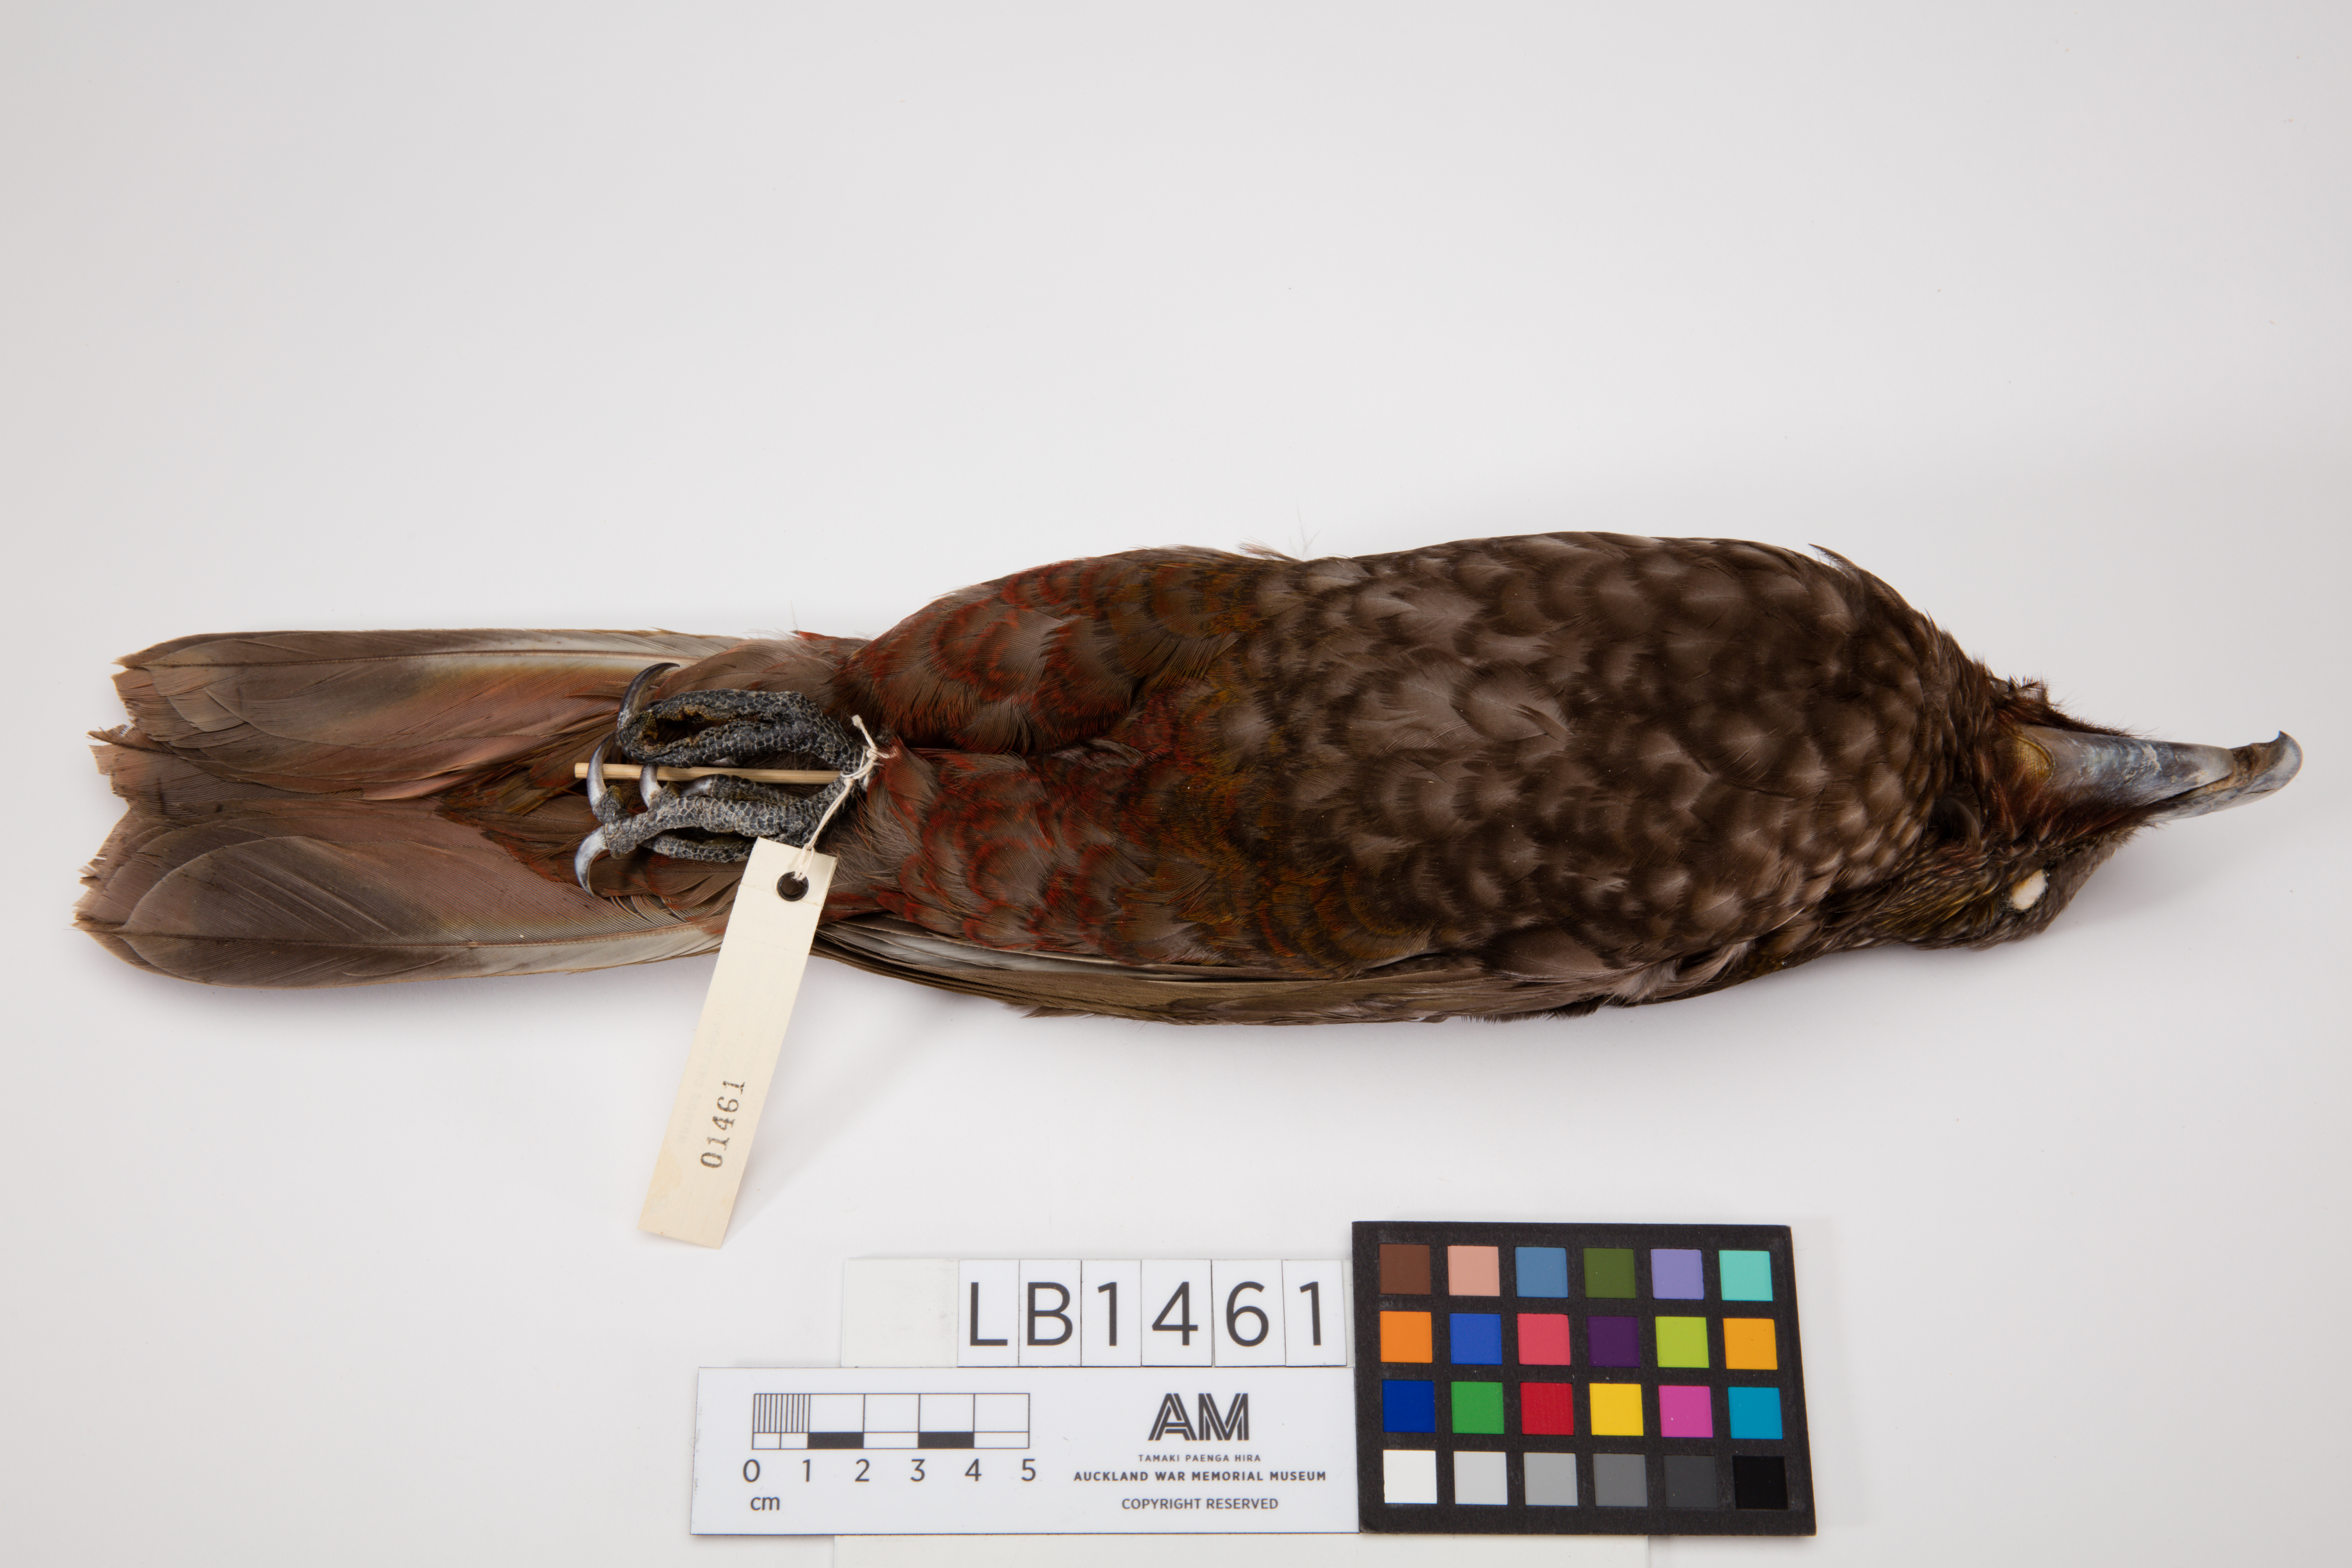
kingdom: Animalia
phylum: Chordata
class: Aves
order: Psittaciformes
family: Psittacidae
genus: Nestor
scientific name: Nestor meridionalis
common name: New zealand kaka
